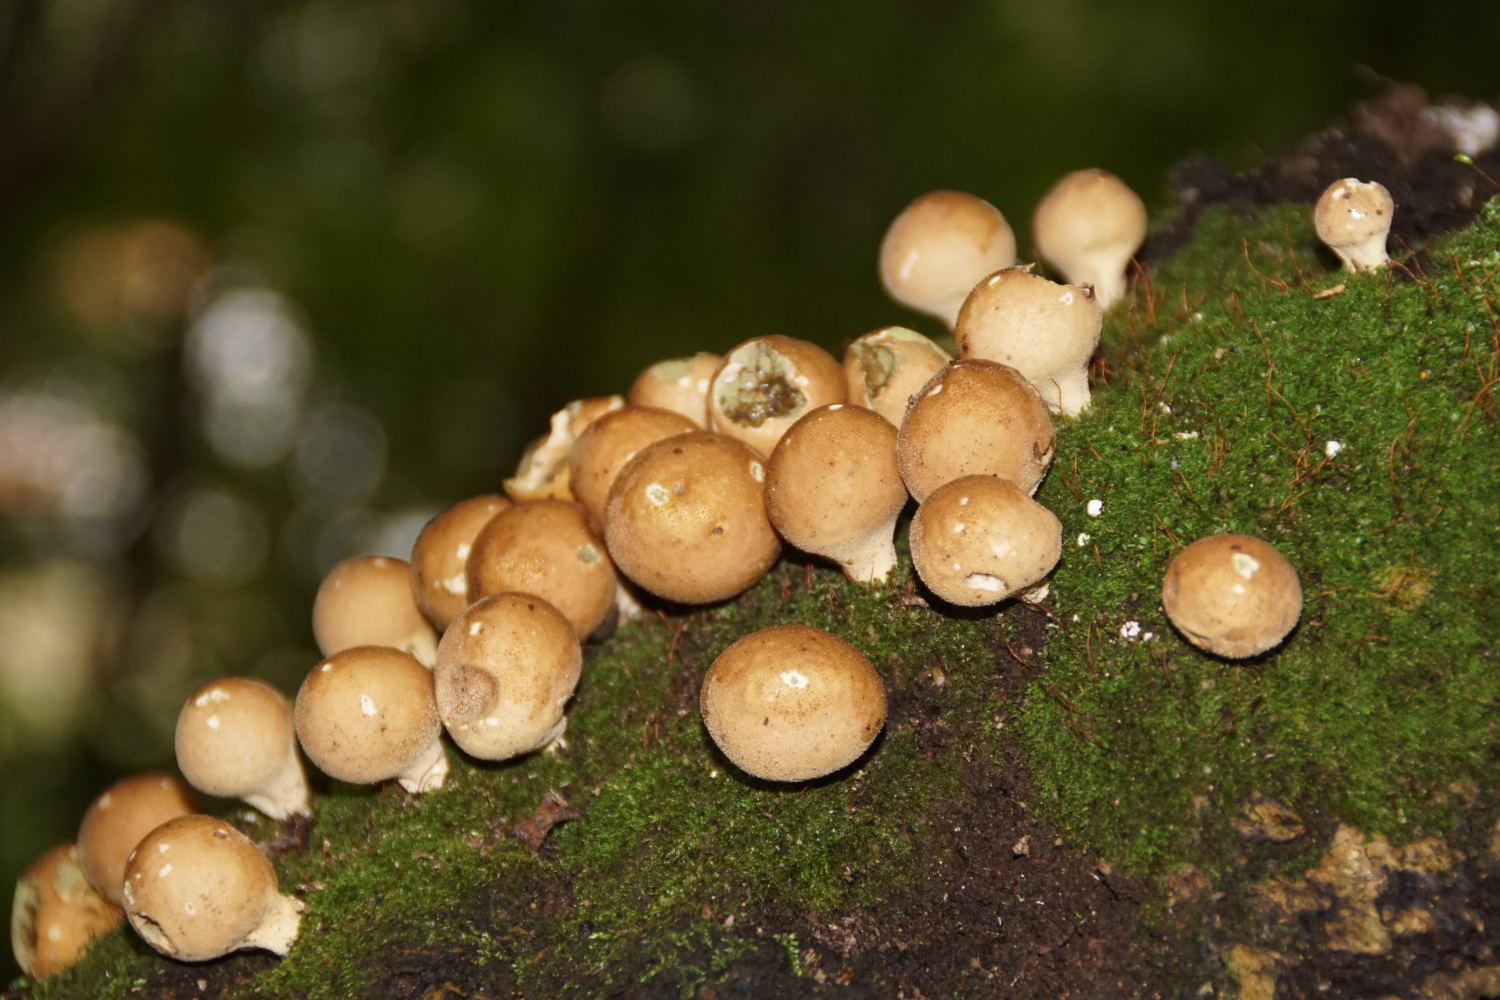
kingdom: Fungi
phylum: Basidiomycota
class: Agaricomycetes
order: Agaricales
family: Lycoperdaceae
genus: Apioperdon
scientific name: Apioperdon pyriforme
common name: pære-støvbold
